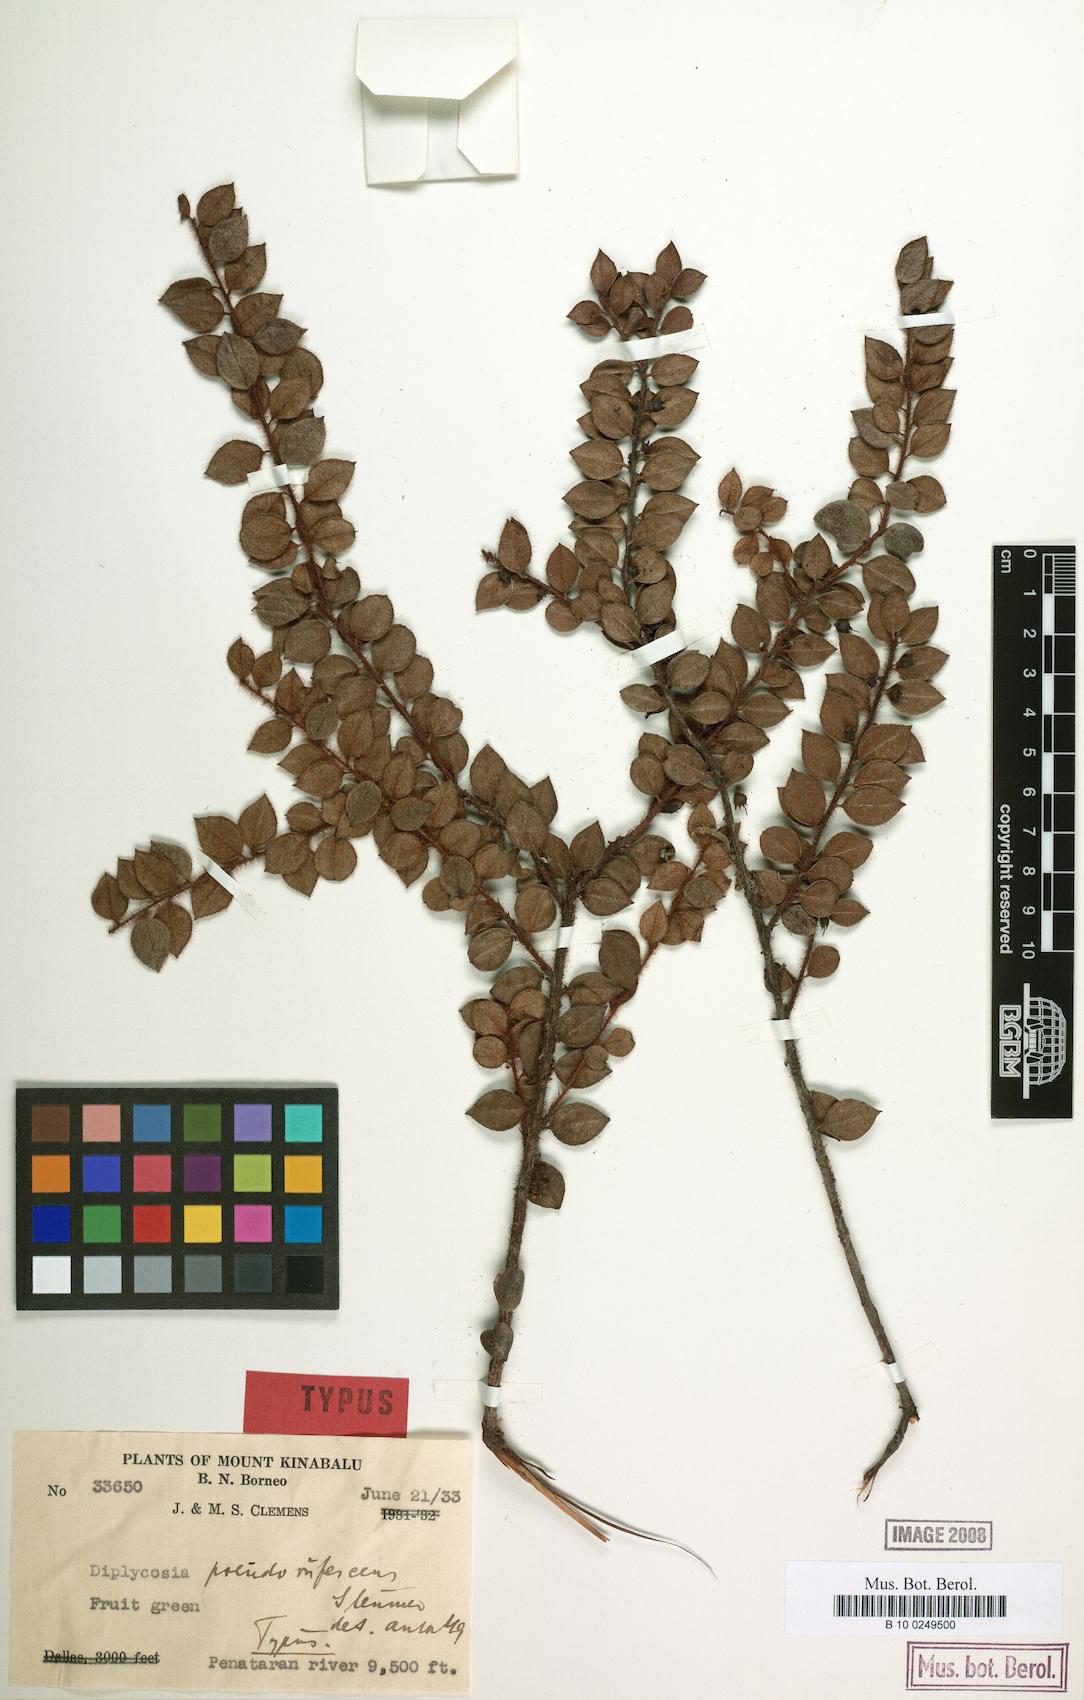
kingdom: Plantae
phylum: Tracheophyta
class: Magnoliopsida
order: Ericales
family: Ericaceae
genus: Gaultheria
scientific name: Gaultheria pseudorufescens
